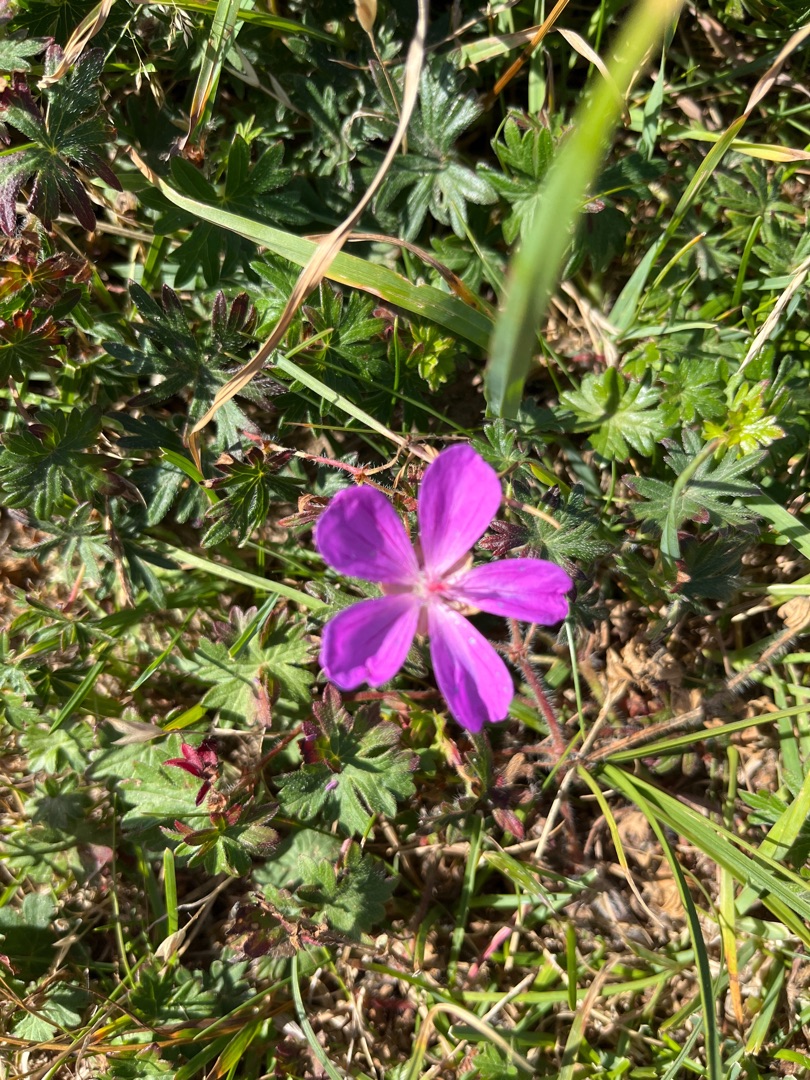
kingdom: Plantae
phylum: Tracheophyta
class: Magnoliopsida
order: Geraniales
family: Geraniaceae
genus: Geranium
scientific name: Geranium sanguineum
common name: Blodrød storkenæb
